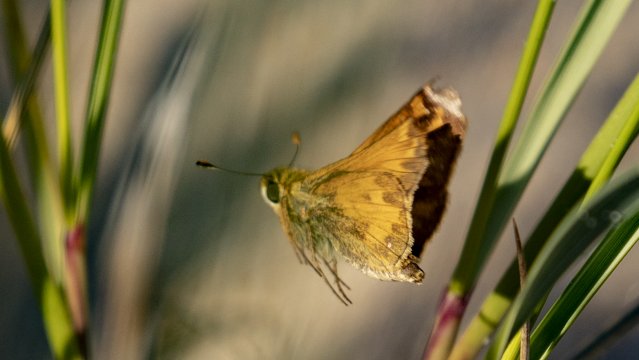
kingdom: Animalia
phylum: Arthropoda
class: Insecta
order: Lepidoptera
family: Hesperiidae
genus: Atalopedes
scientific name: Atalopedes campestris
